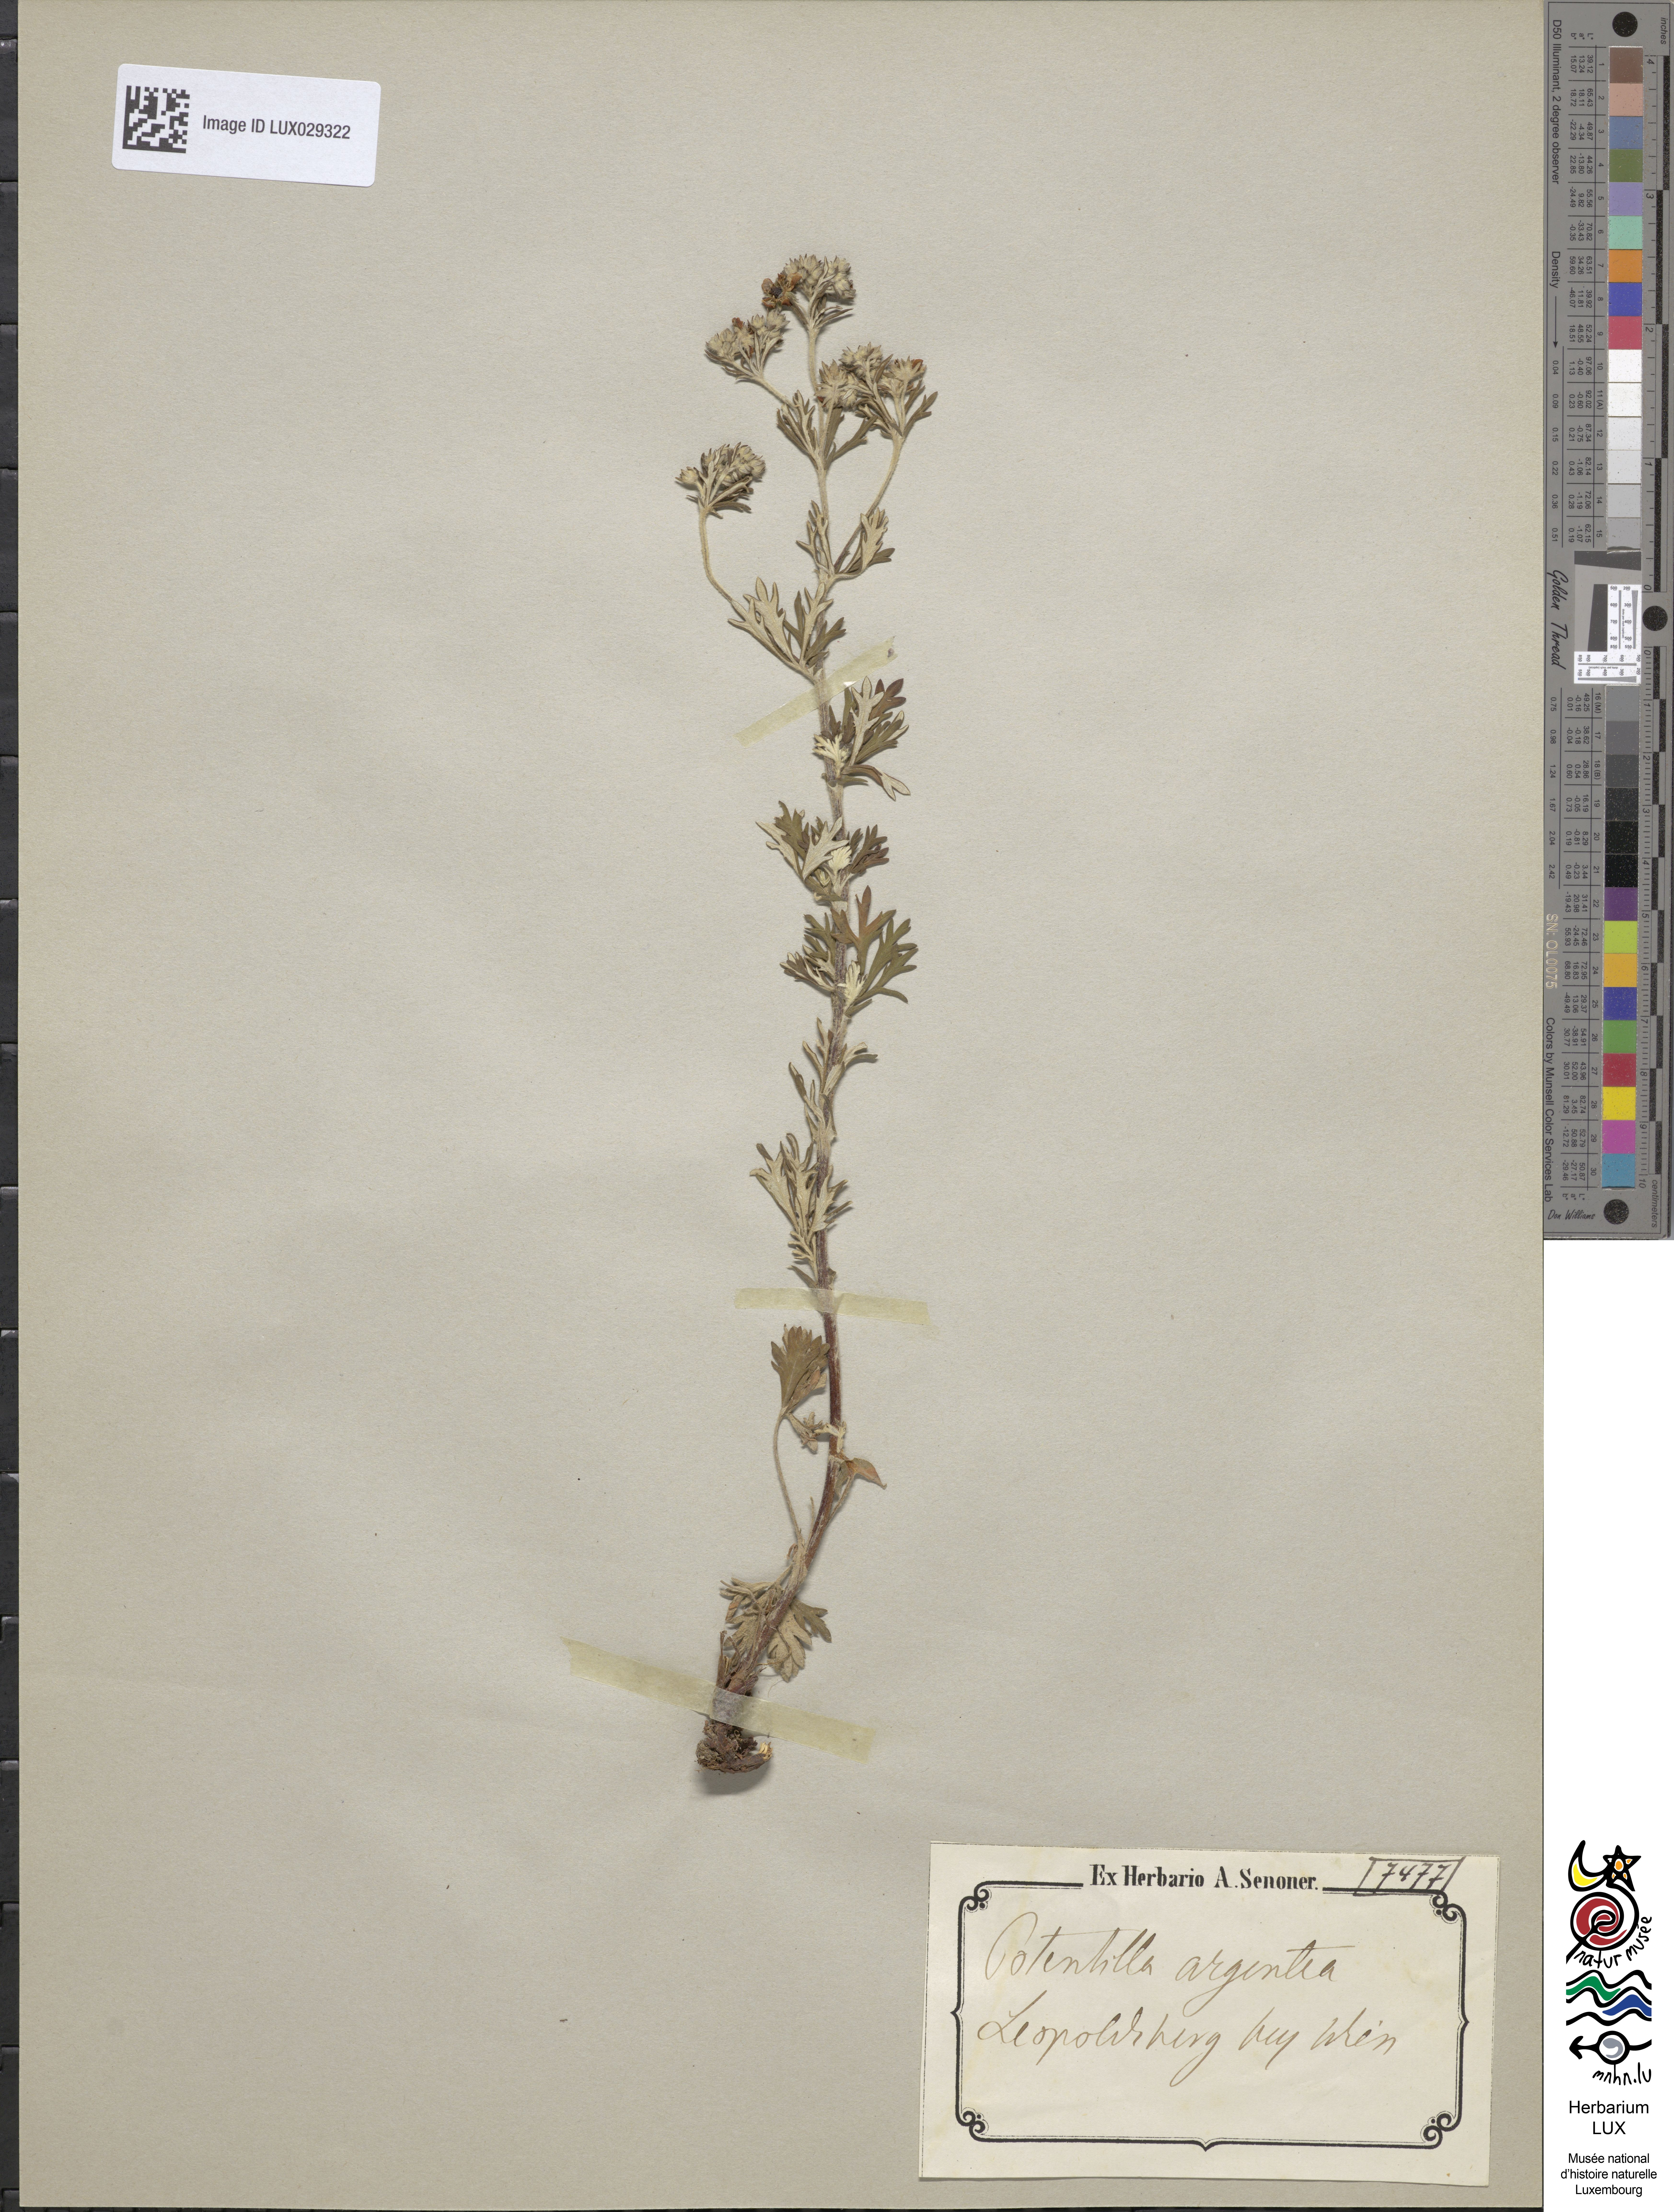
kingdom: Plantae
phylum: Tracheophyta
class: Magnoliopsida
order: Rosales
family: Rosaceae
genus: Potentilla
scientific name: Potentilla argentea
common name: Hoary cinquefoil
